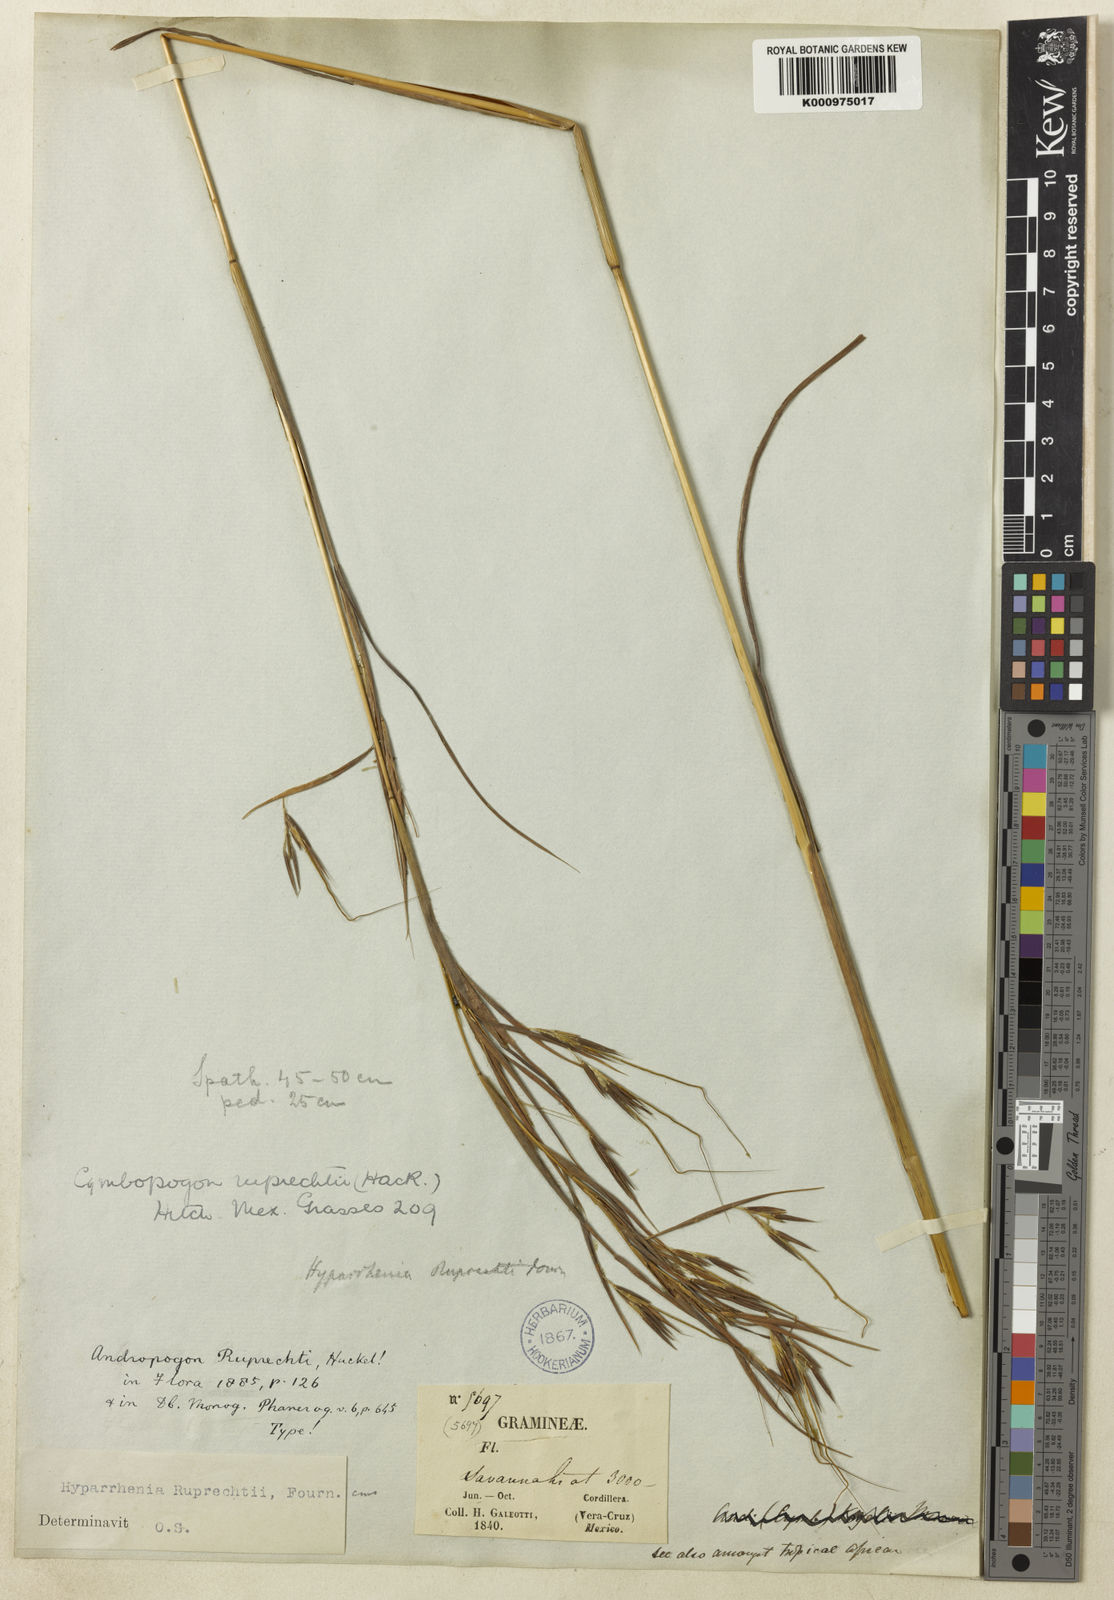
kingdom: Plantae
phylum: Tracheophyta
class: Liliopsida
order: Poales
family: Poaceae
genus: Hyperthelia
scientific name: Hyperthelia dissoluta
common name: Yellow thatching grass
